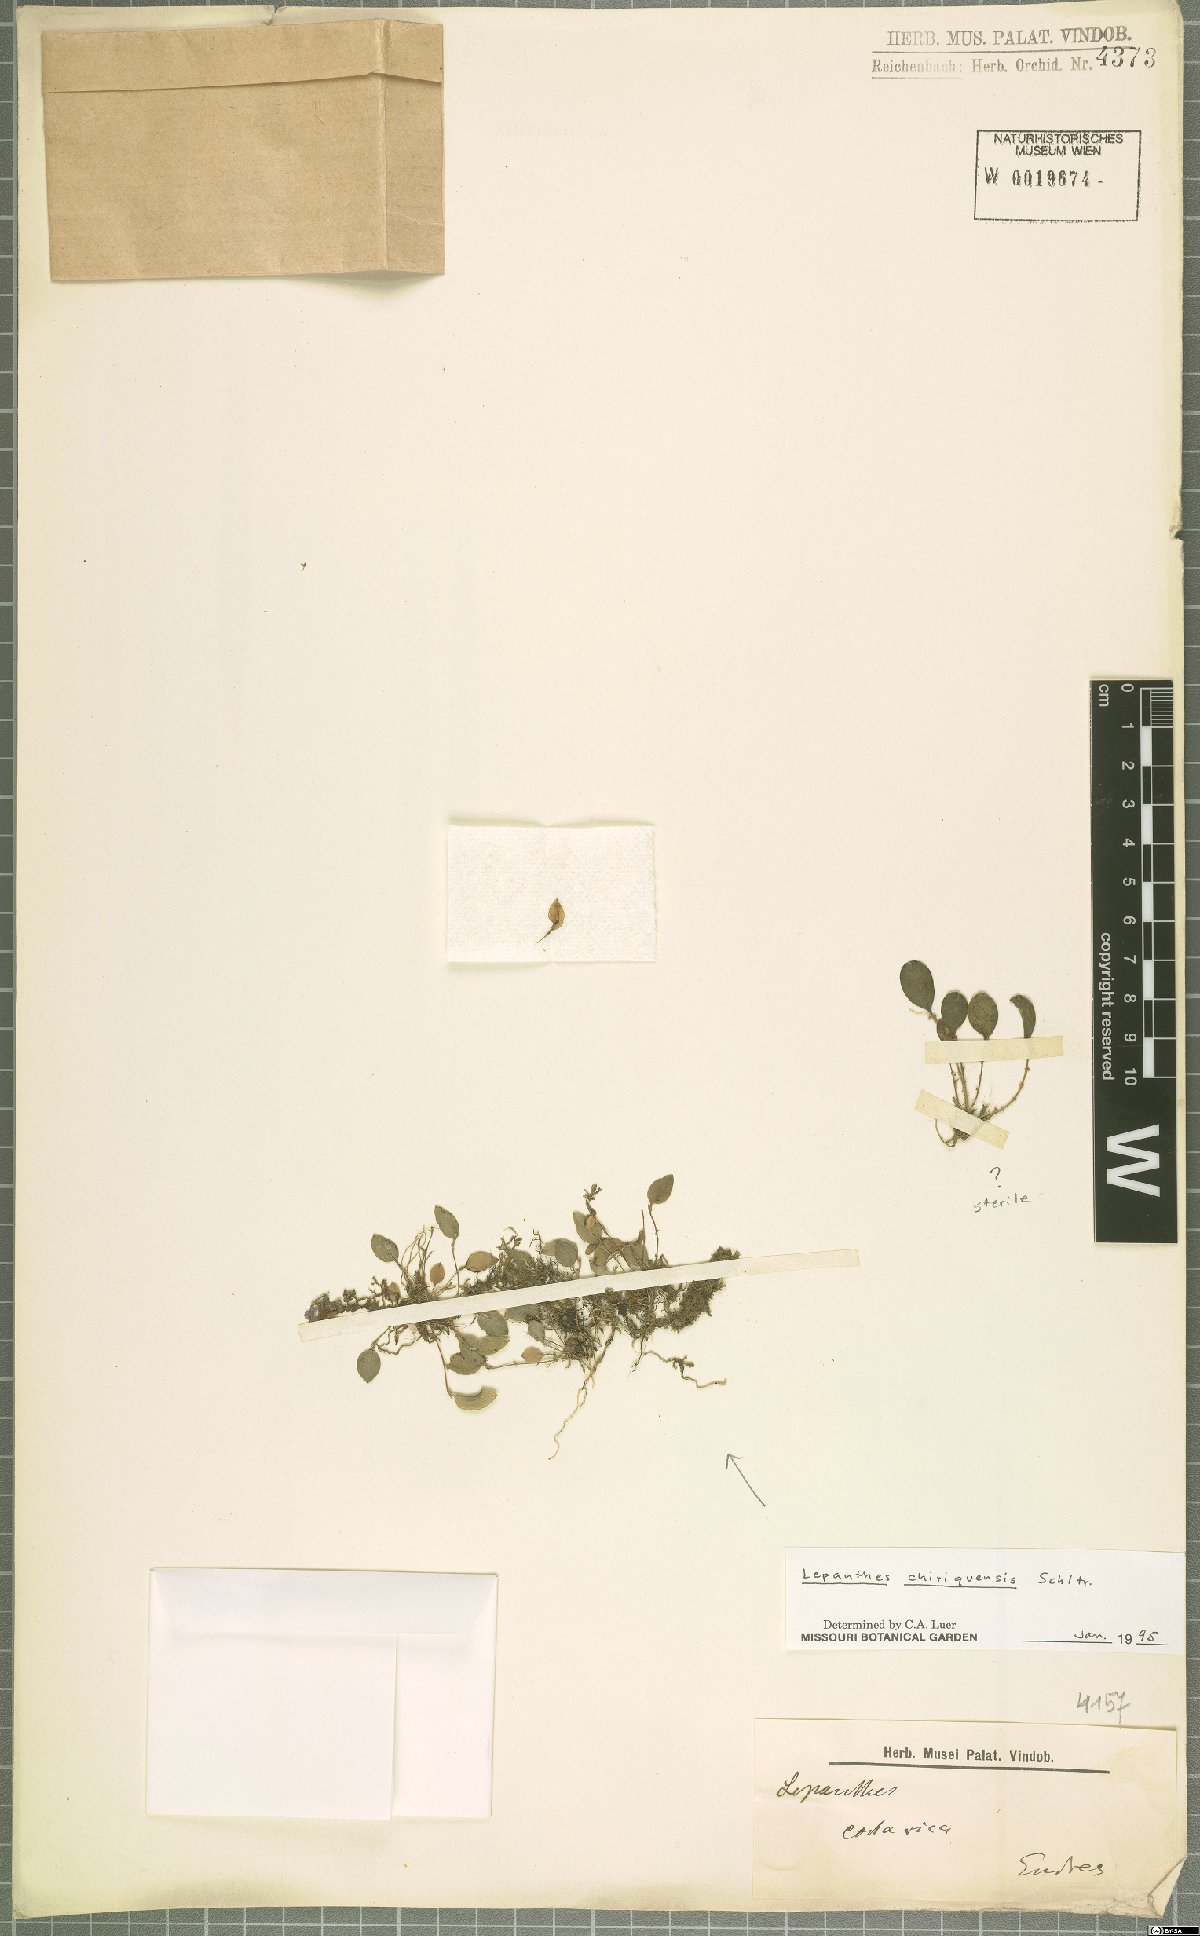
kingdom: Plantae
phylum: Tracheophyta
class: Liliopsida
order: Asparagales
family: Orchidaceae
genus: Lepanthes
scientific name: Lepanthes chiriquensis
